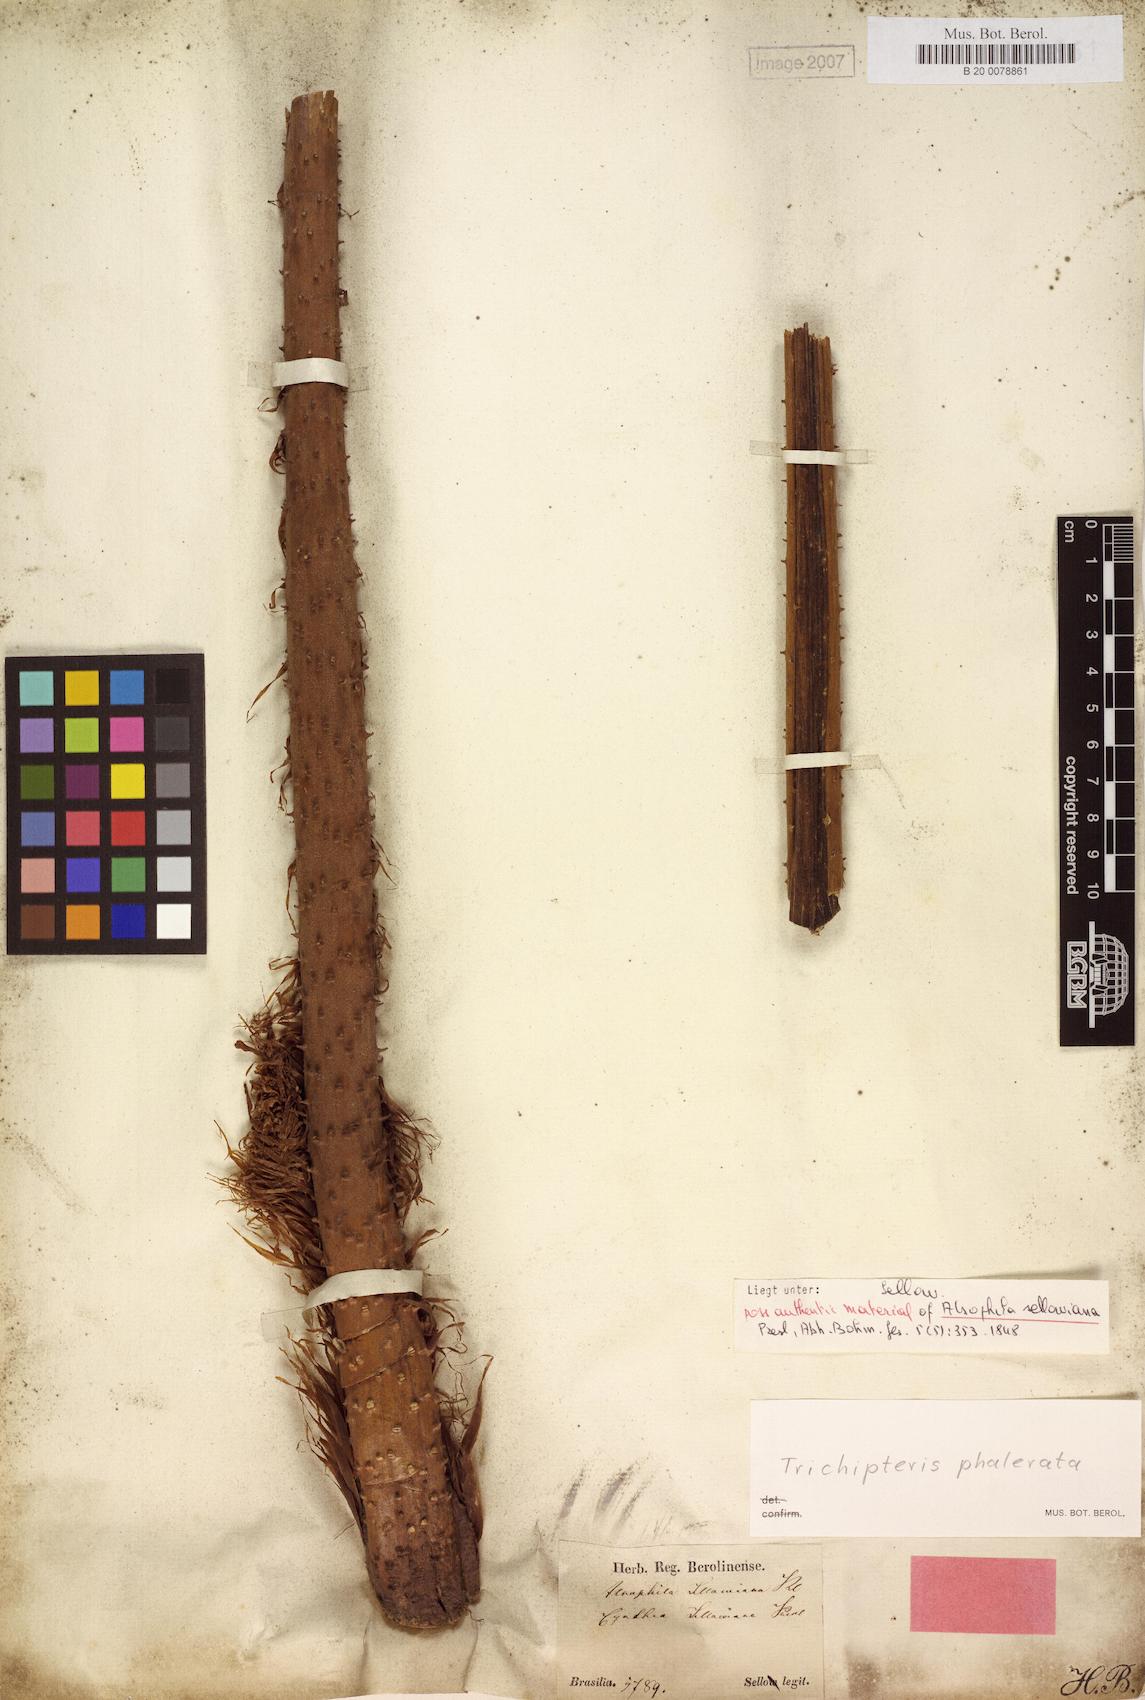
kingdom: Plantae
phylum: Tracheophyta
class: Polypodiopsida
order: Cyatheales
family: Cyatheaceae
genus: Cyathea
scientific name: Cyathea phalerata
